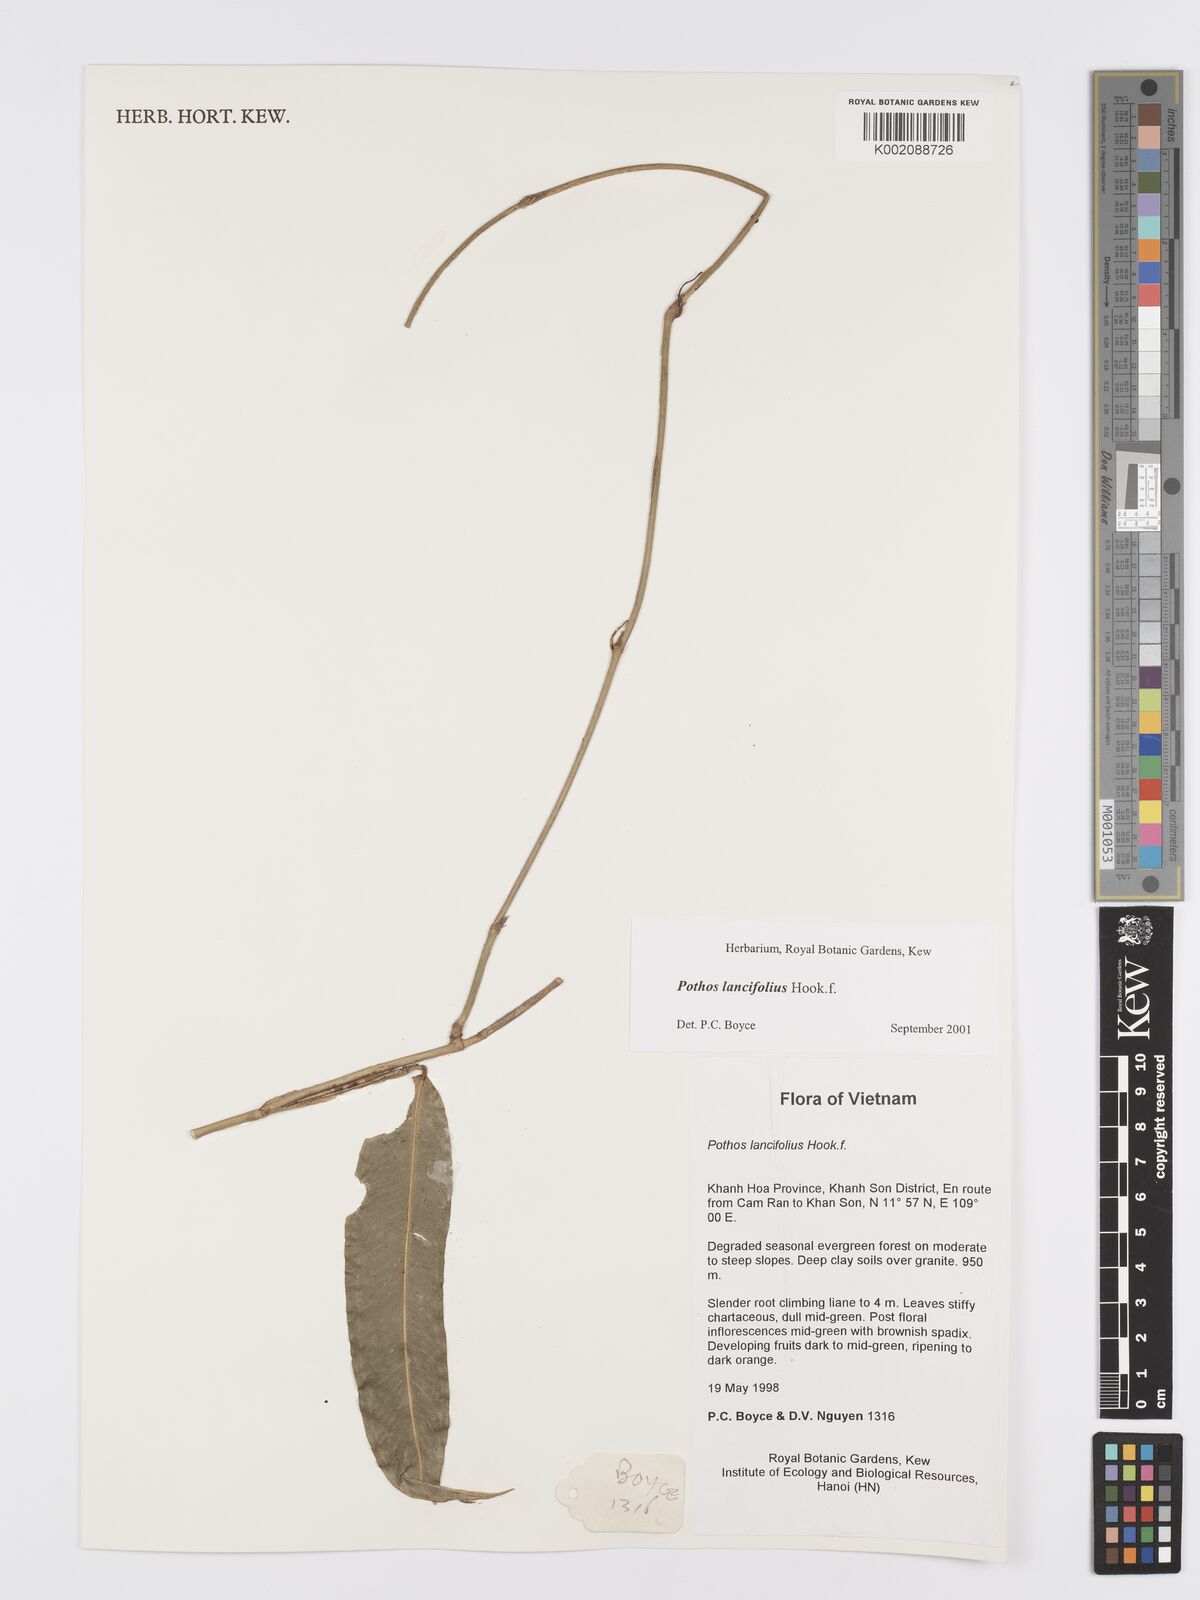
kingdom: Plantae
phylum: Tracheophyta
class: Liliopsida
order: Alismatales
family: Araceae
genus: Pothos
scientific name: Pothos lancifolius
